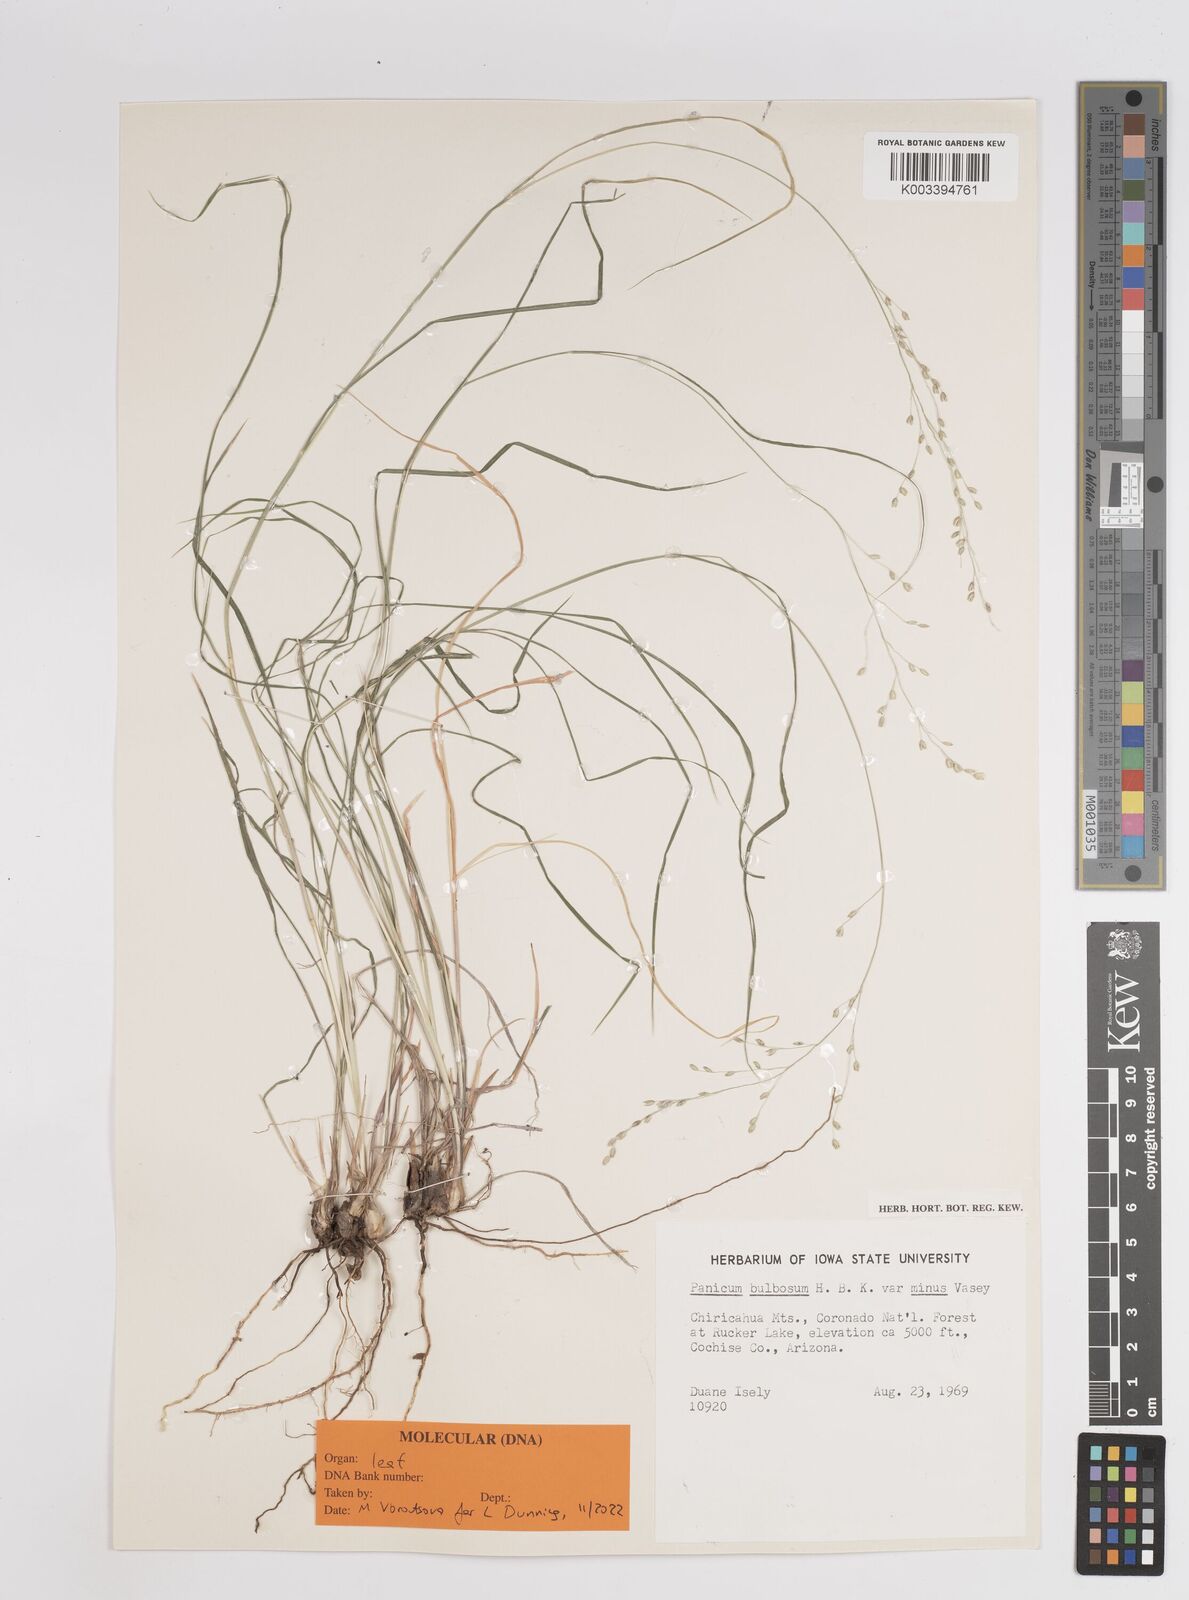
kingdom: Plantae
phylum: Tracheophyta
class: Liliopsida
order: Poales
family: Poaceae
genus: Zuloagaea
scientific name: Zuloagaea bulbosa
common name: Canyon panic grass
